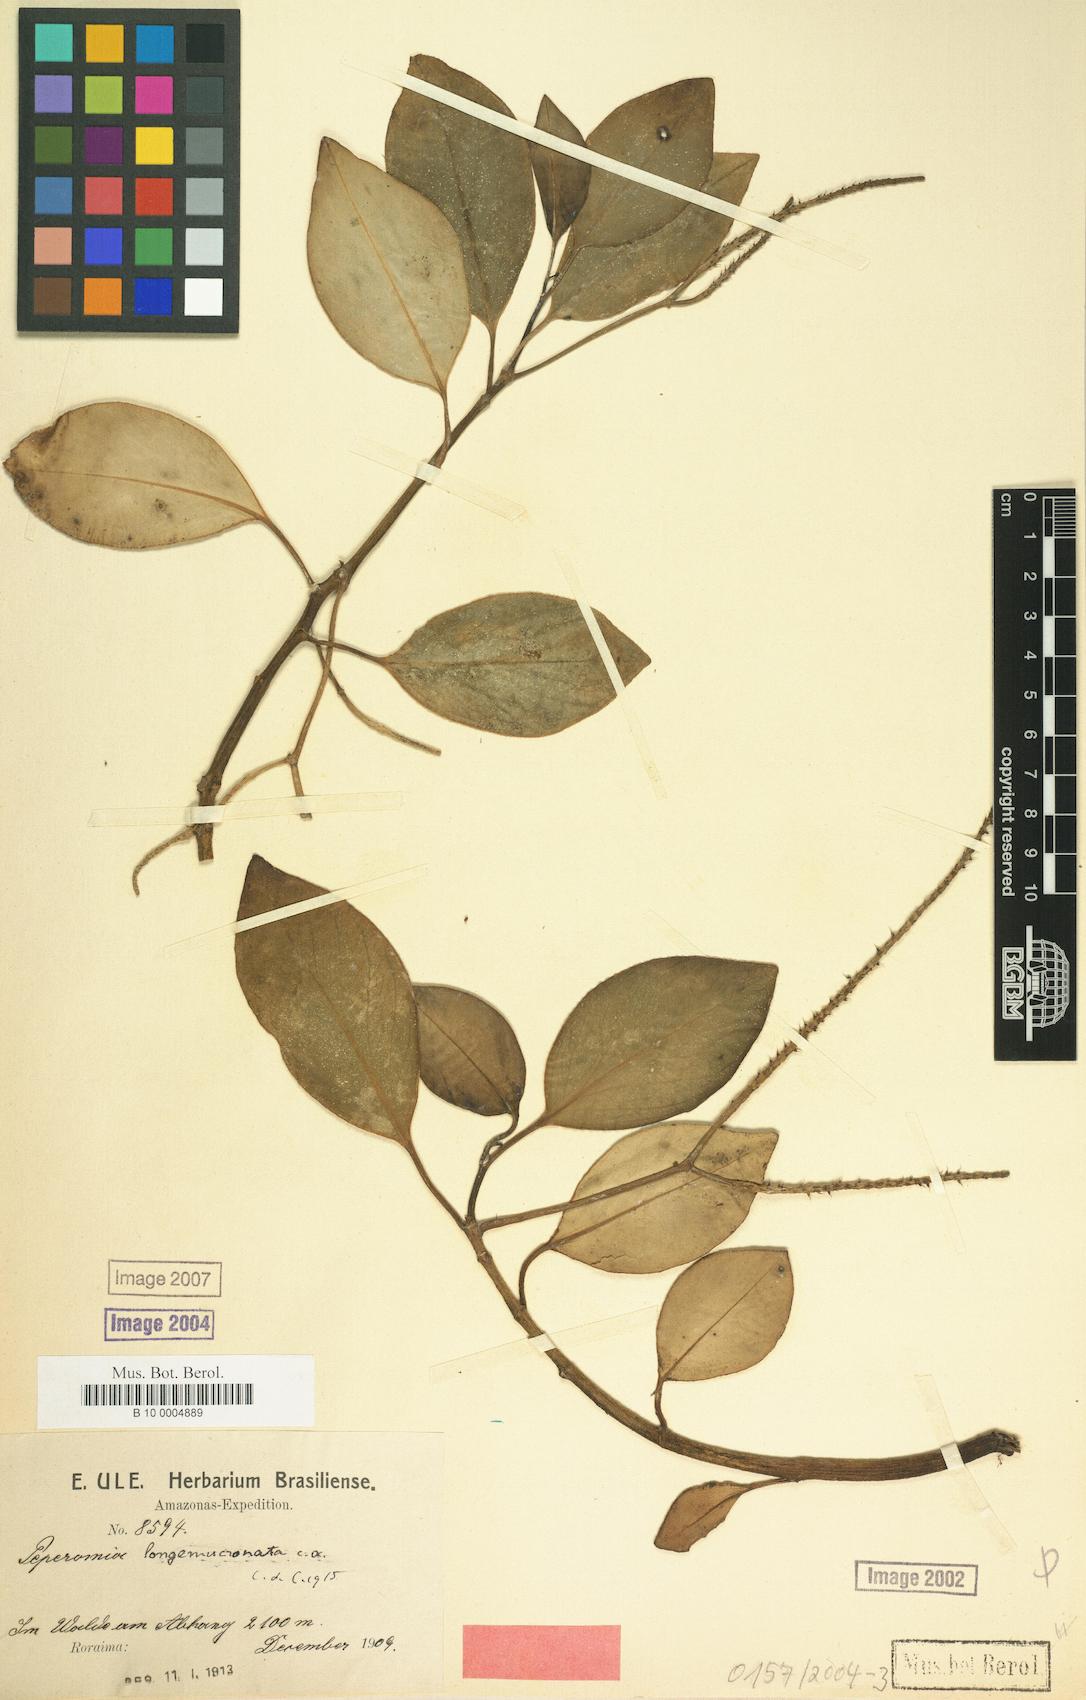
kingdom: Plantae
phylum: Tracheophyta
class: Magnoliopsida
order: Piperales
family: Piperaceae
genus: Peperomia
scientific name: Peperomia alpina
